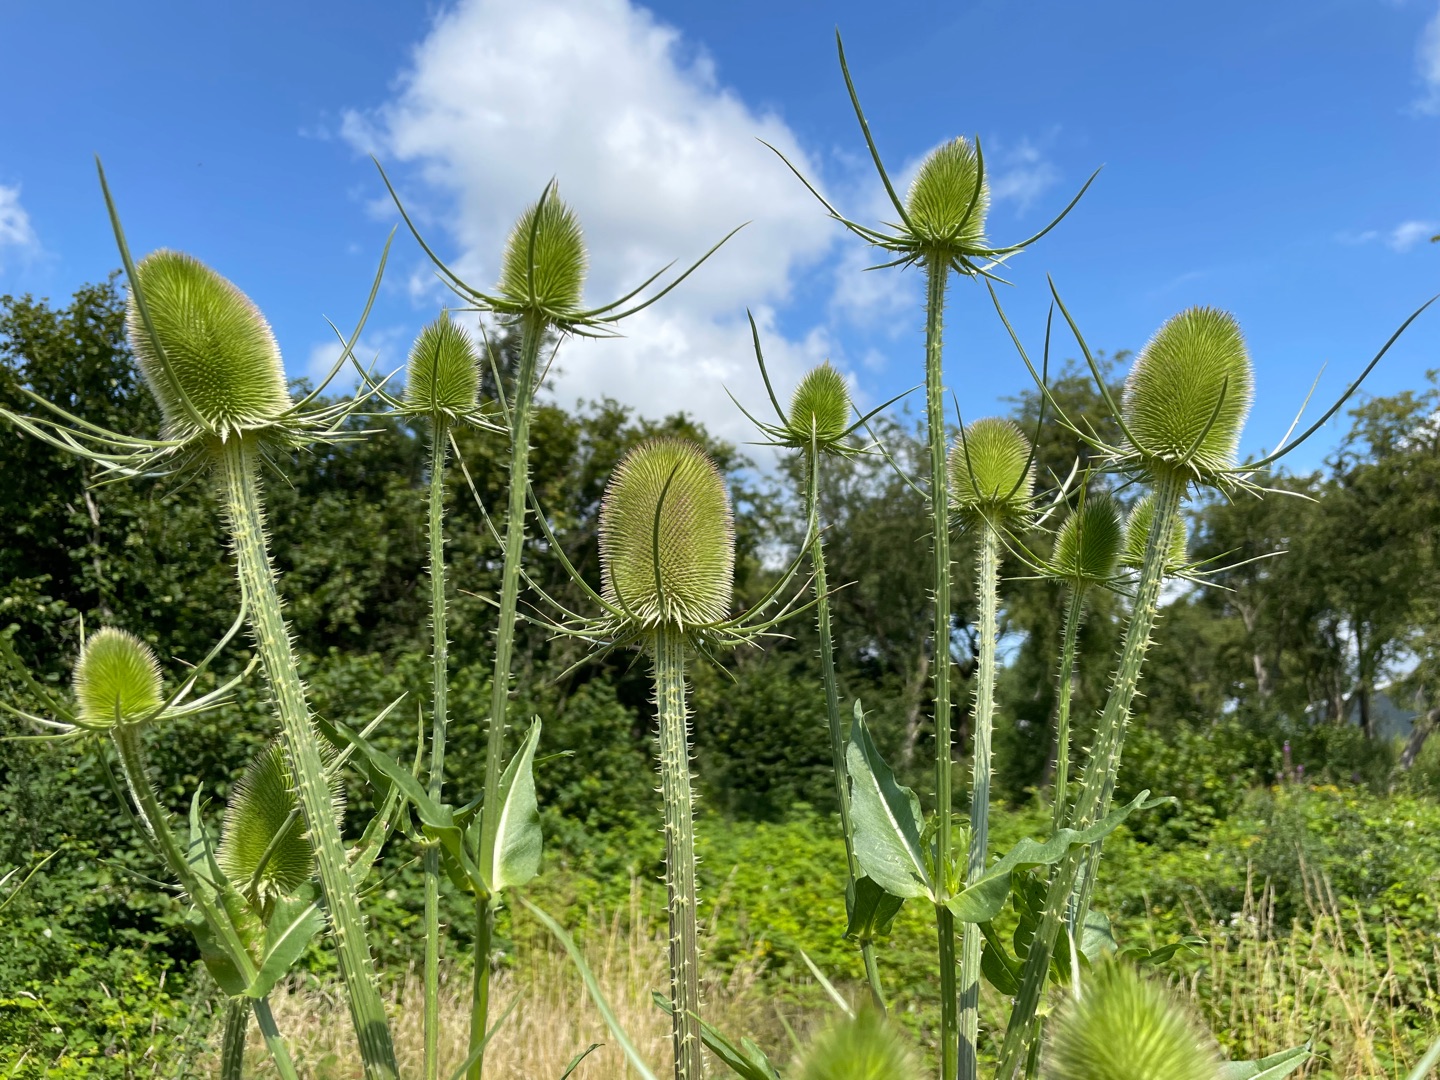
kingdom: Plantae
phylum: Tracheophyta
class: Magnoliopsida
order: Dipsacales
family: Caprifoliaceae
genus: Dipsacus
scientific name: Dipsacus fullonum
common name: Gærde-kartebolle
